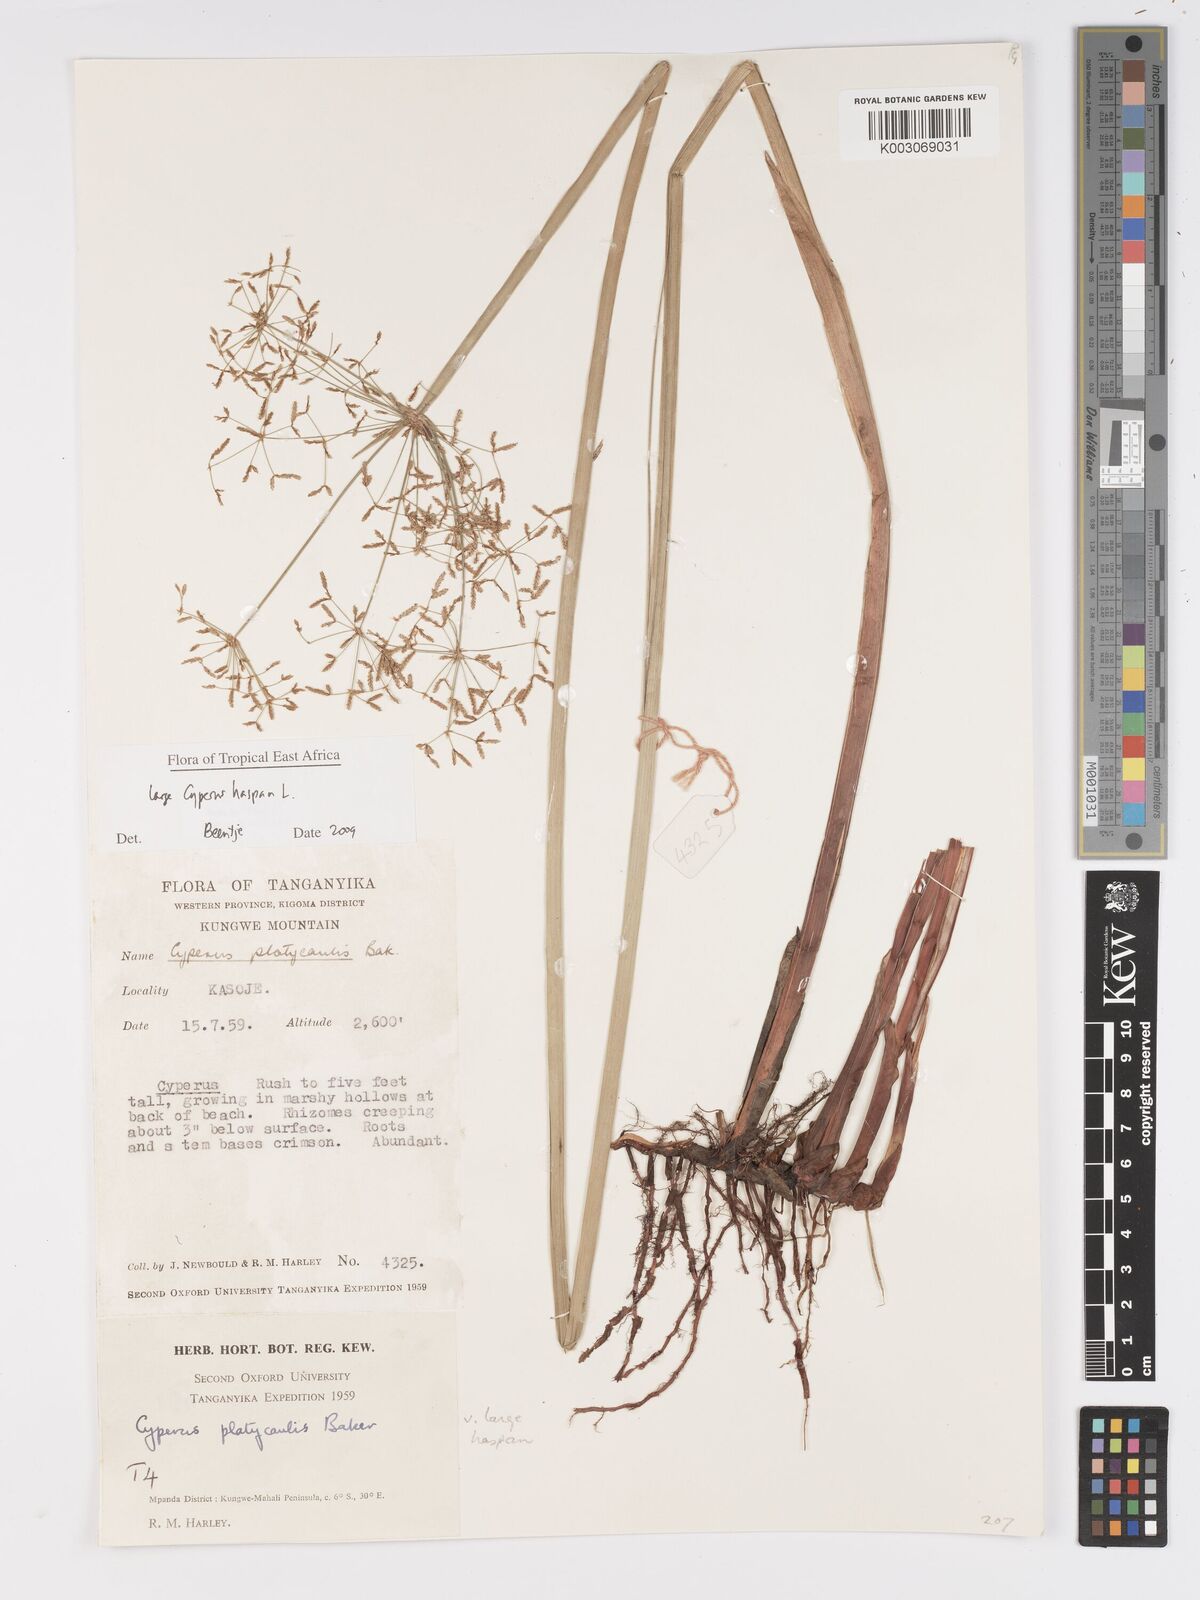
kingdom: Plantae
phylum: Tracheophyta
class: Liliopsida
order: Poales
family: Cyperaceae
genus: Cyperus
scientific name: Cyperus haspan
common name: Haspan flatsedge
